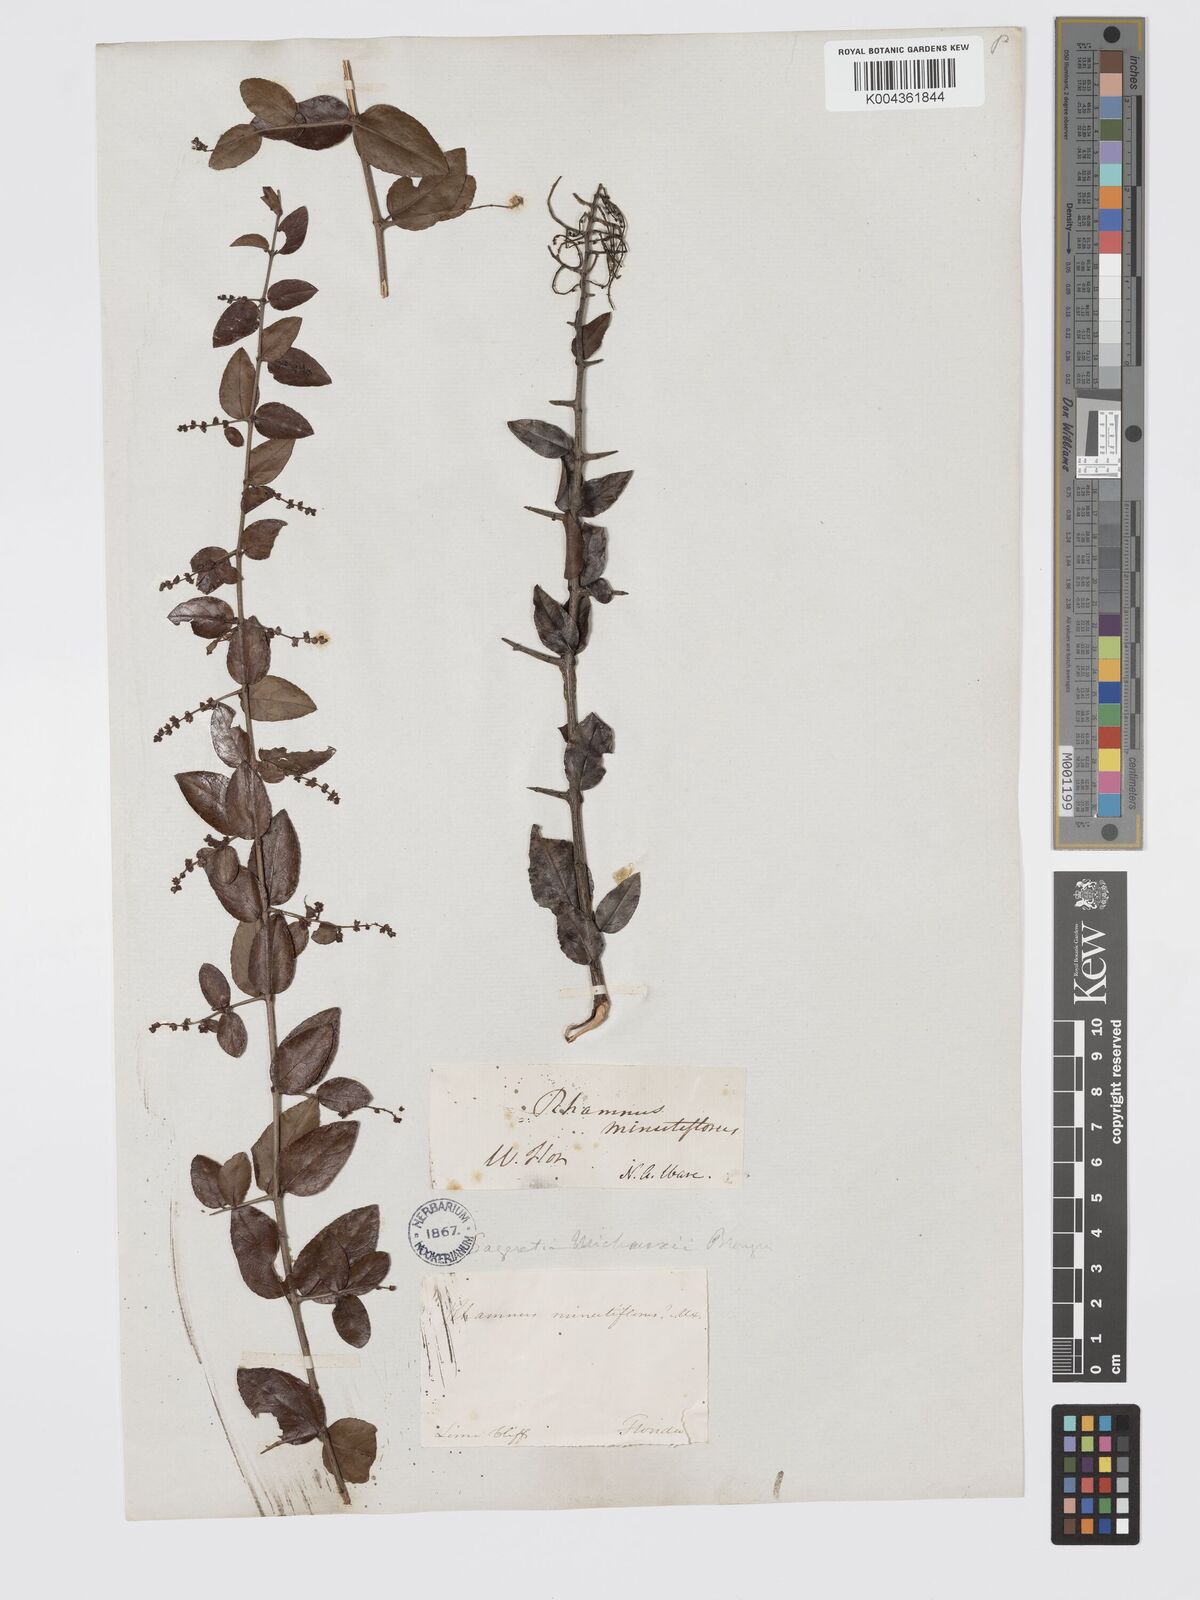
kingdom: Plantae
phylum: Tracheophyta
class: Magnoliopsida
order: Rosales
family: Rhamnaceae
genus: Sageretia
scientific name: Sageretia minutiflora
